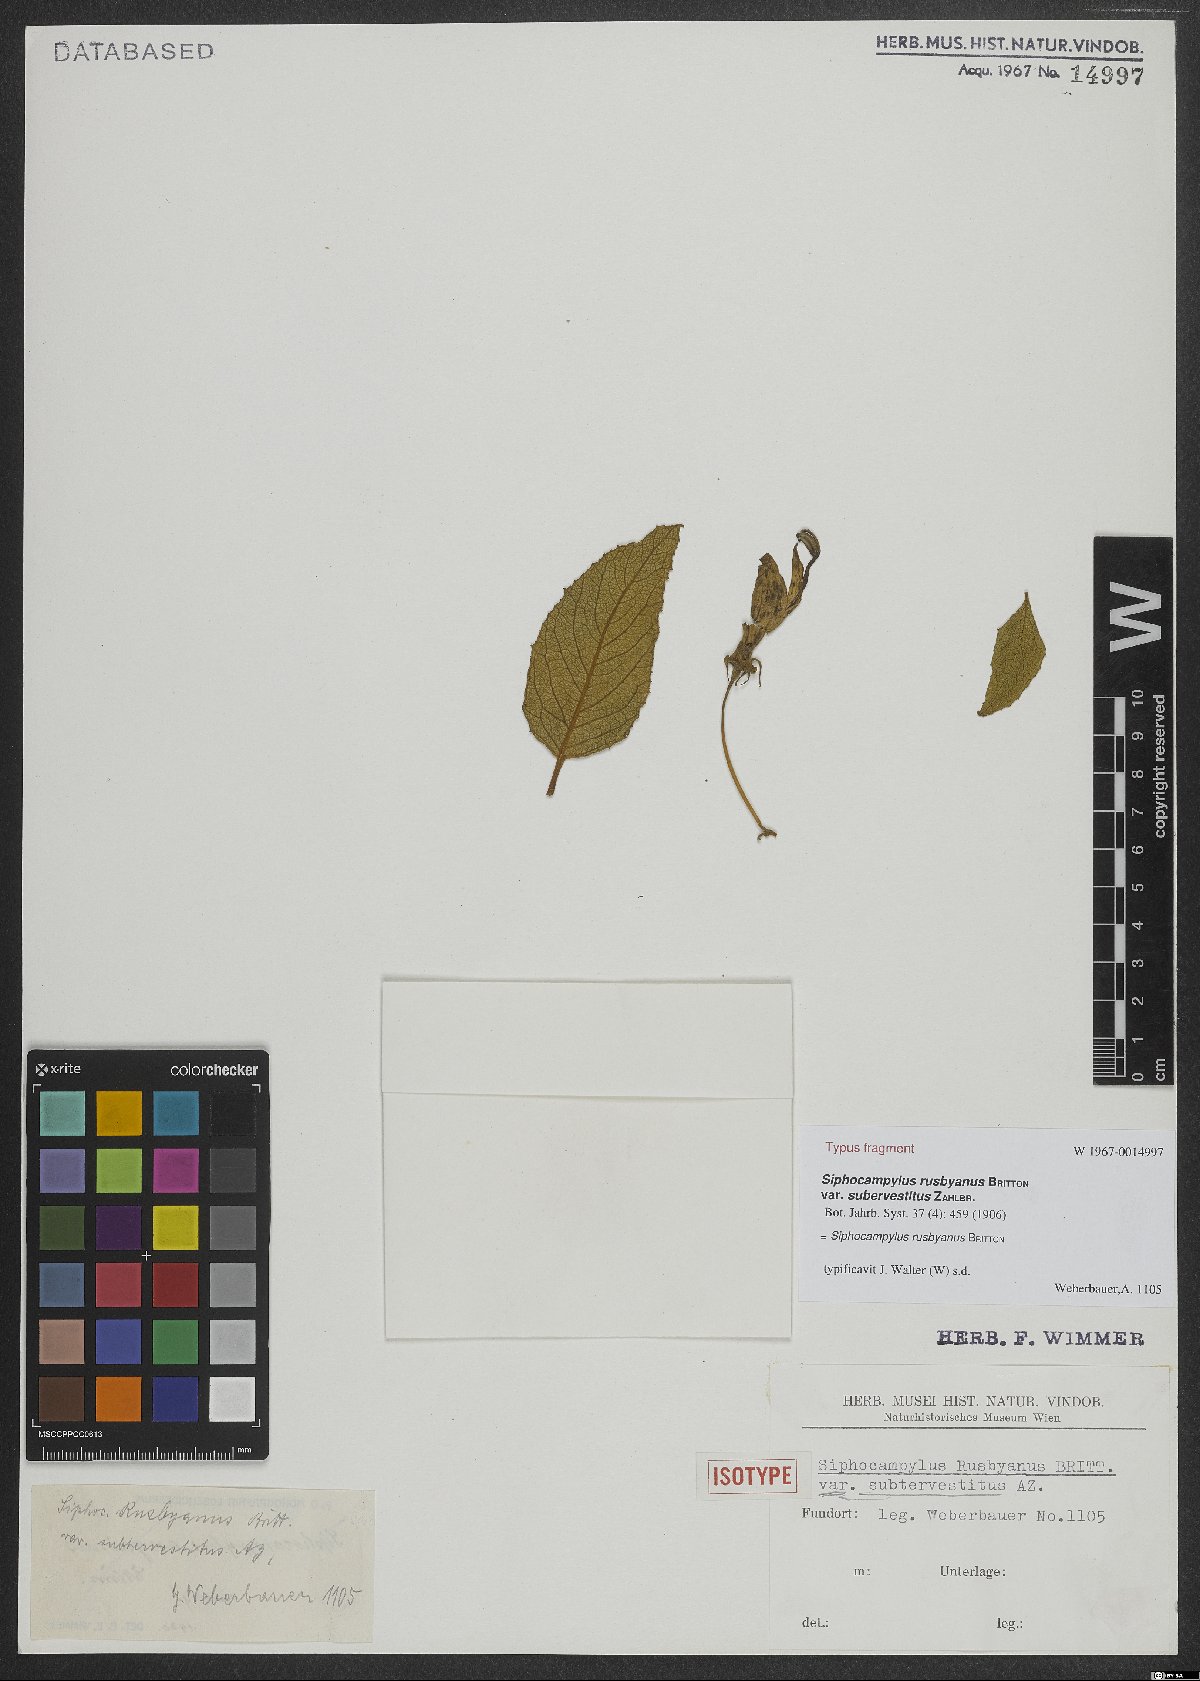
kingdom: Plantae
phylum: Tracheophyta
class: Magnoliopsida
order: Asterales
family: Campanulaceae
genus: Siphocampylus
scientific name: Siphocampylus rusbyanus
